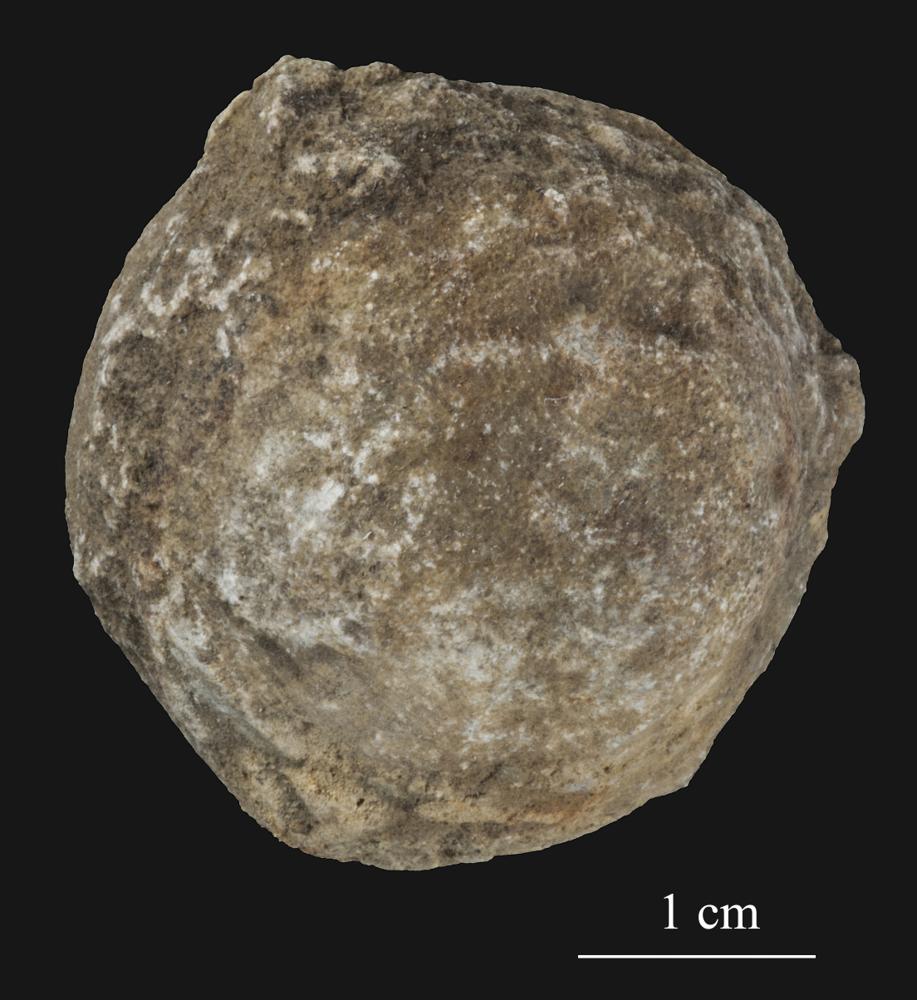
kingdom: Animalia
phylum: Bryozoa
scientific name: Bryozoa
